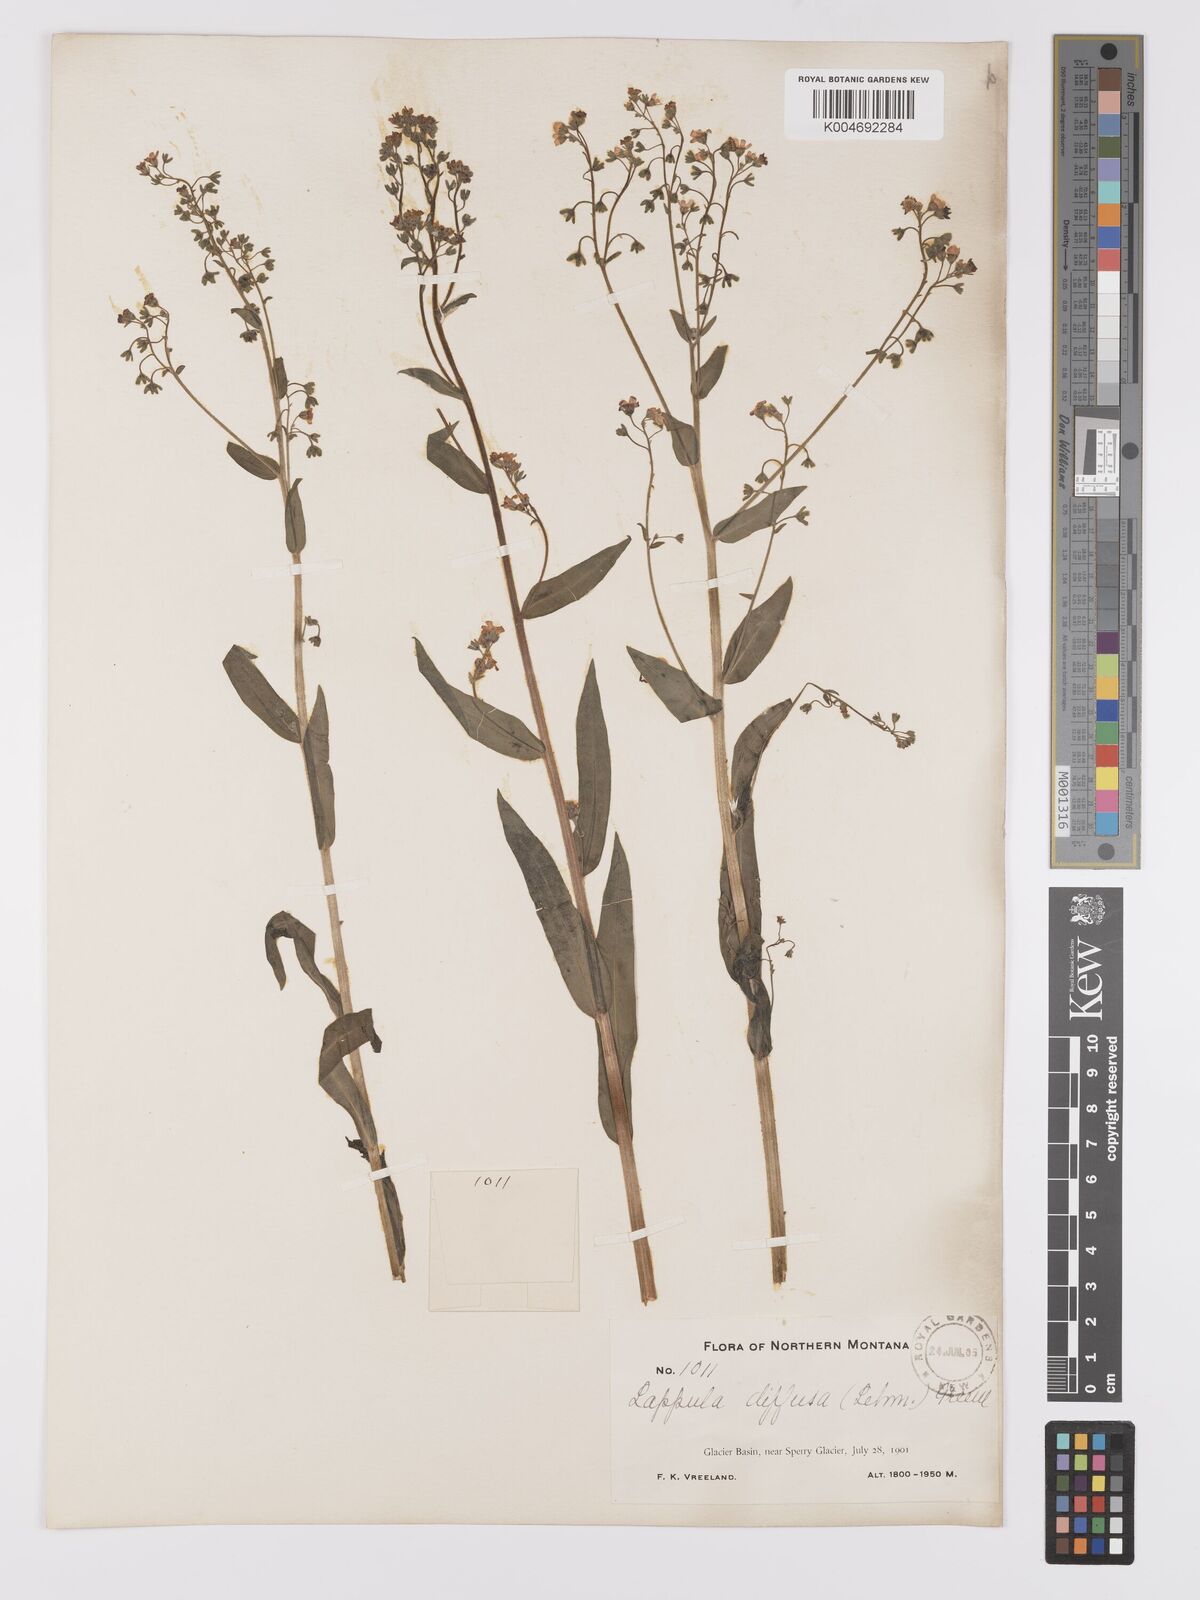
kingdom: Plantae
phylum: Tracheophyta
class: Magnoliopsida
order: Boraginales
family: Boraginaceae
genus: Hackelia
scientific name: Hackelia diffusa
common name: Spreading hackelia
